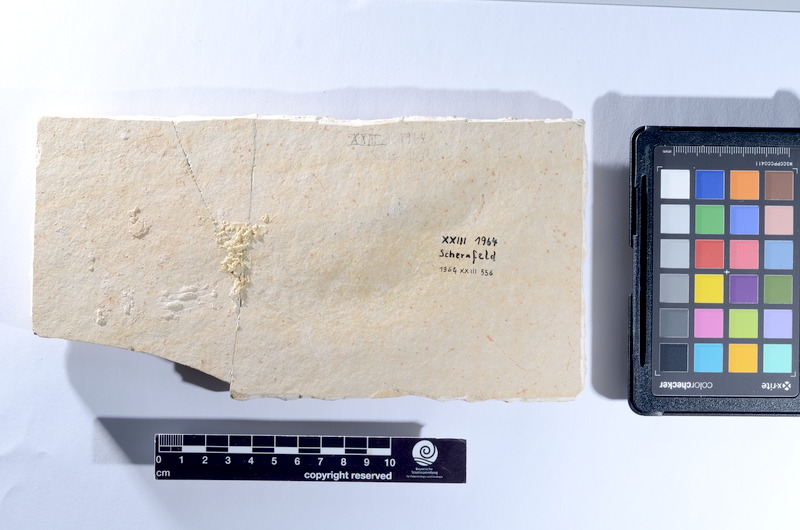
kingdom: Animalia
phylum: Chordata
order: Amiiformes
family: Caturidae
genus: Caturus
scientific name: Caturus
